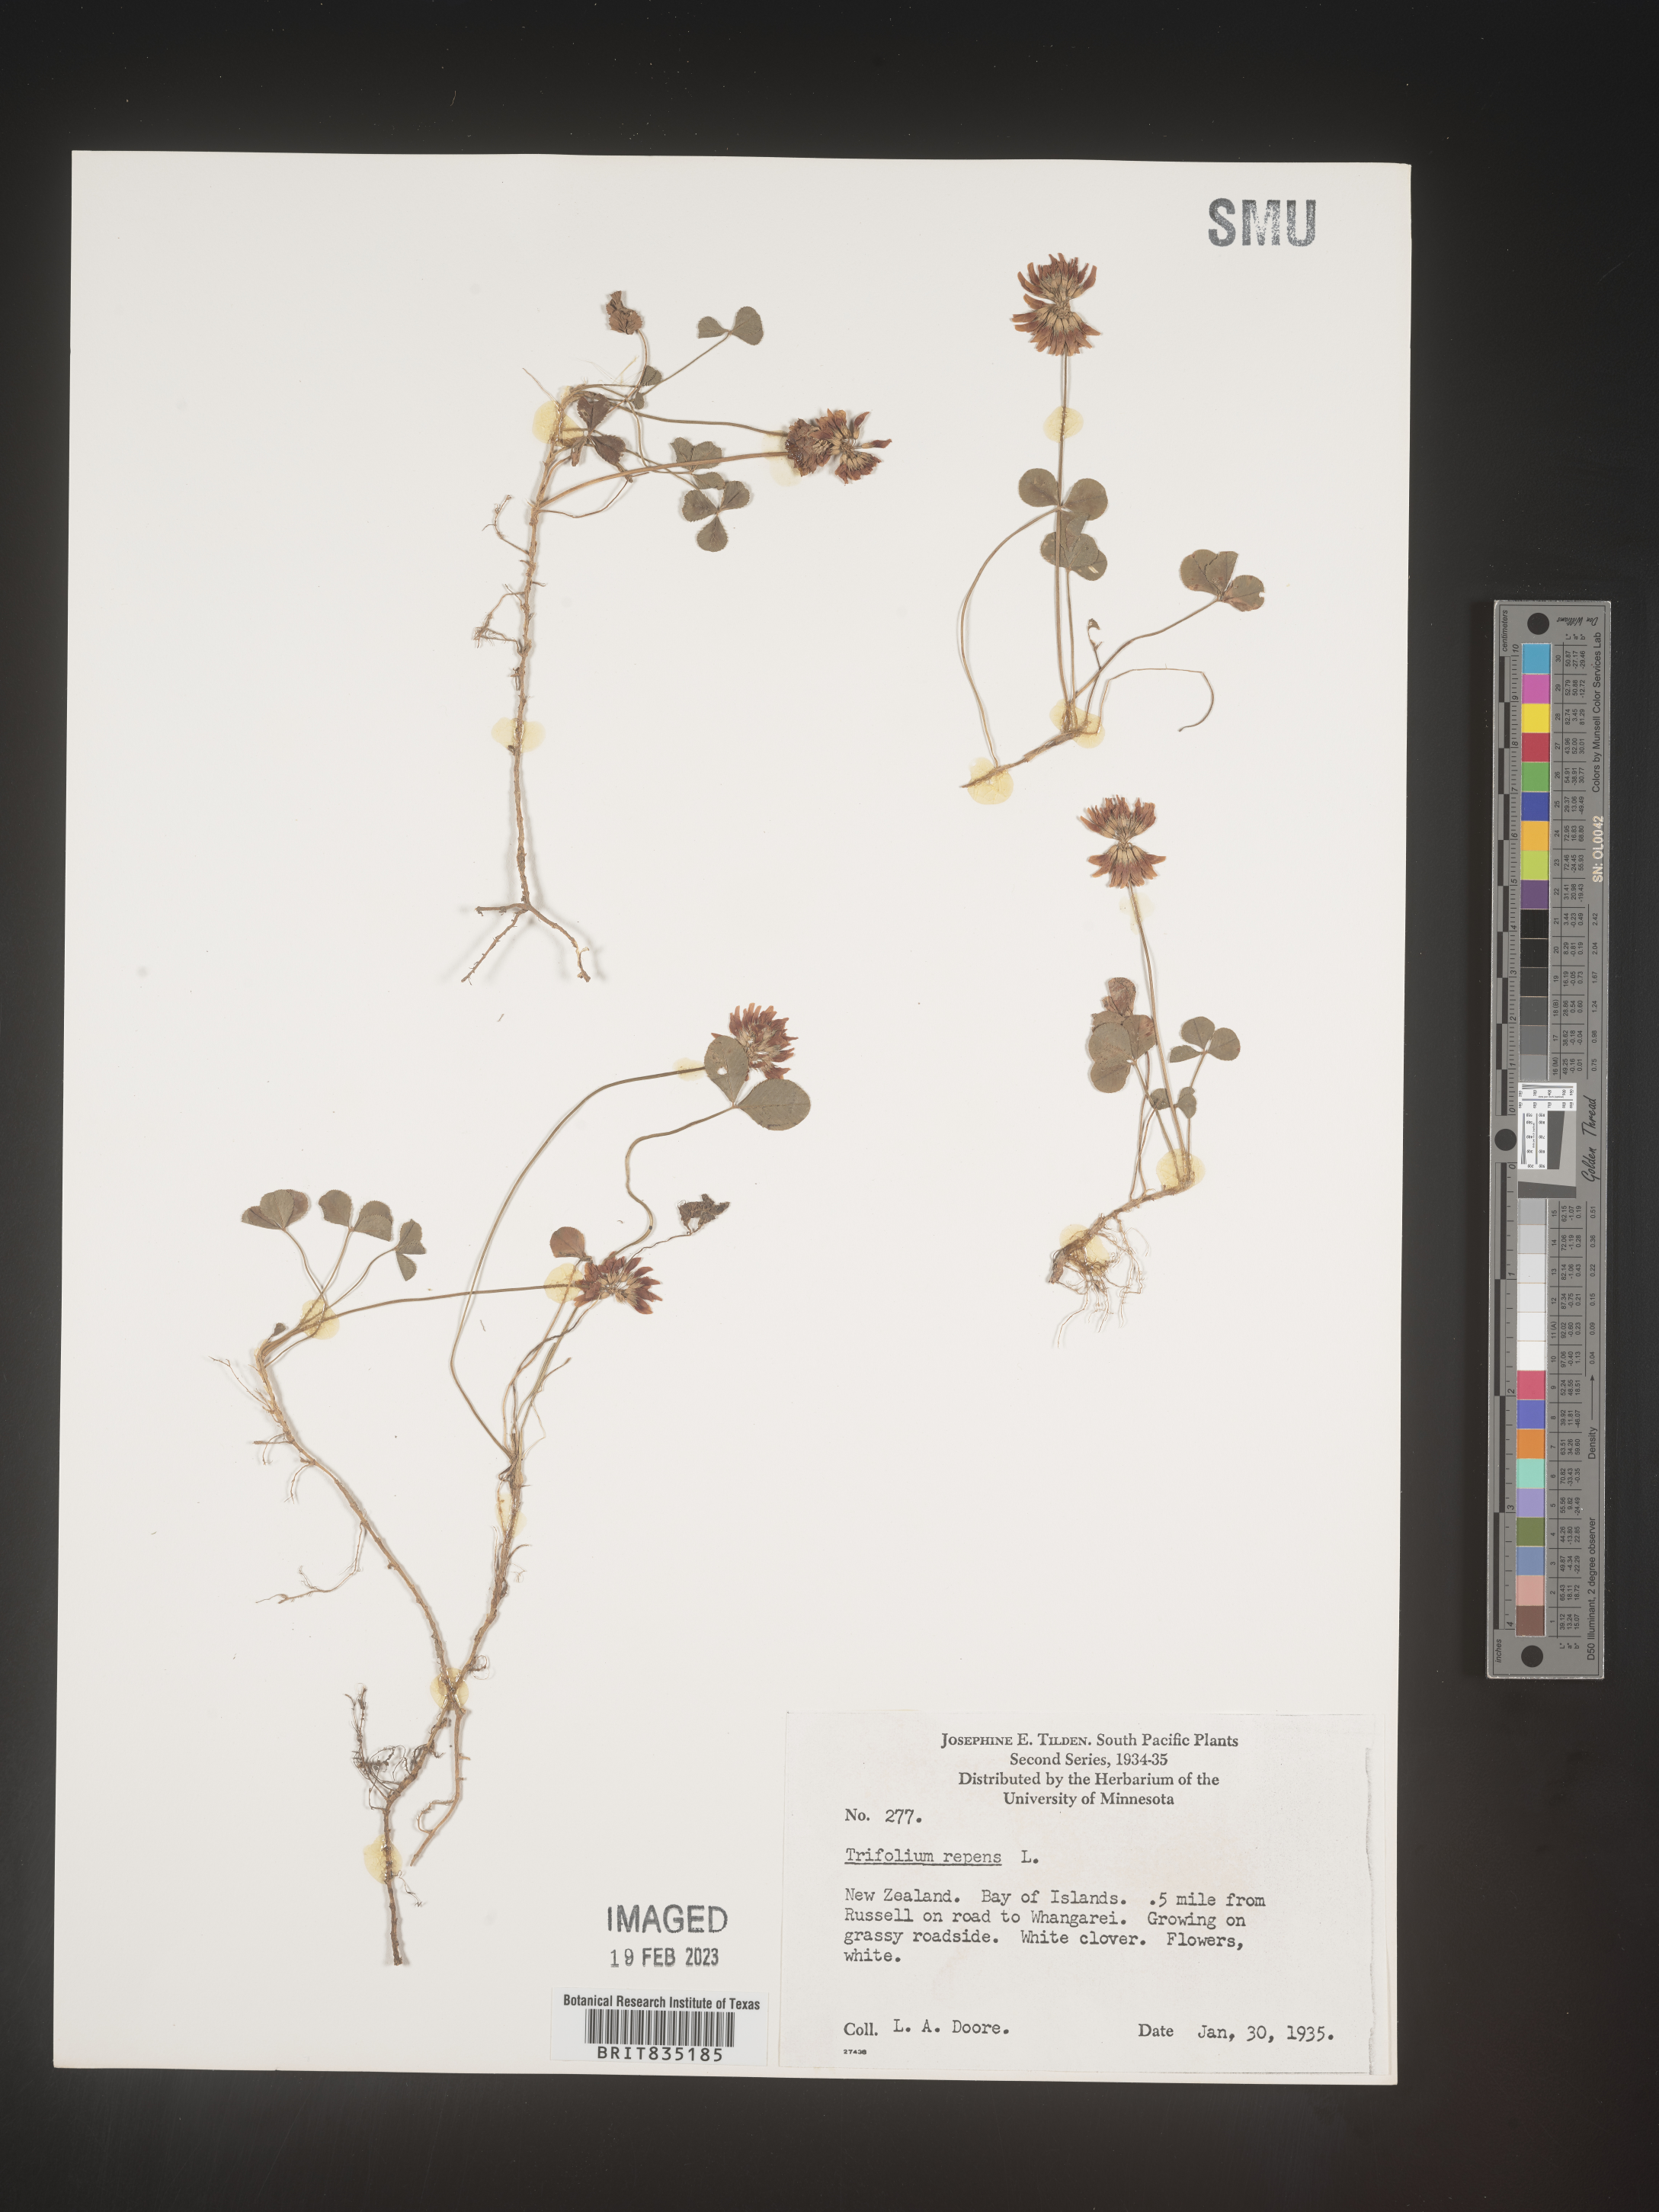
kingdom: Plantae
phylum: Tracheophyta
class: Magnoliopsida
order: Fabales
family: Fabaceae
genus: Trifolium
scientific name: Trifolium
